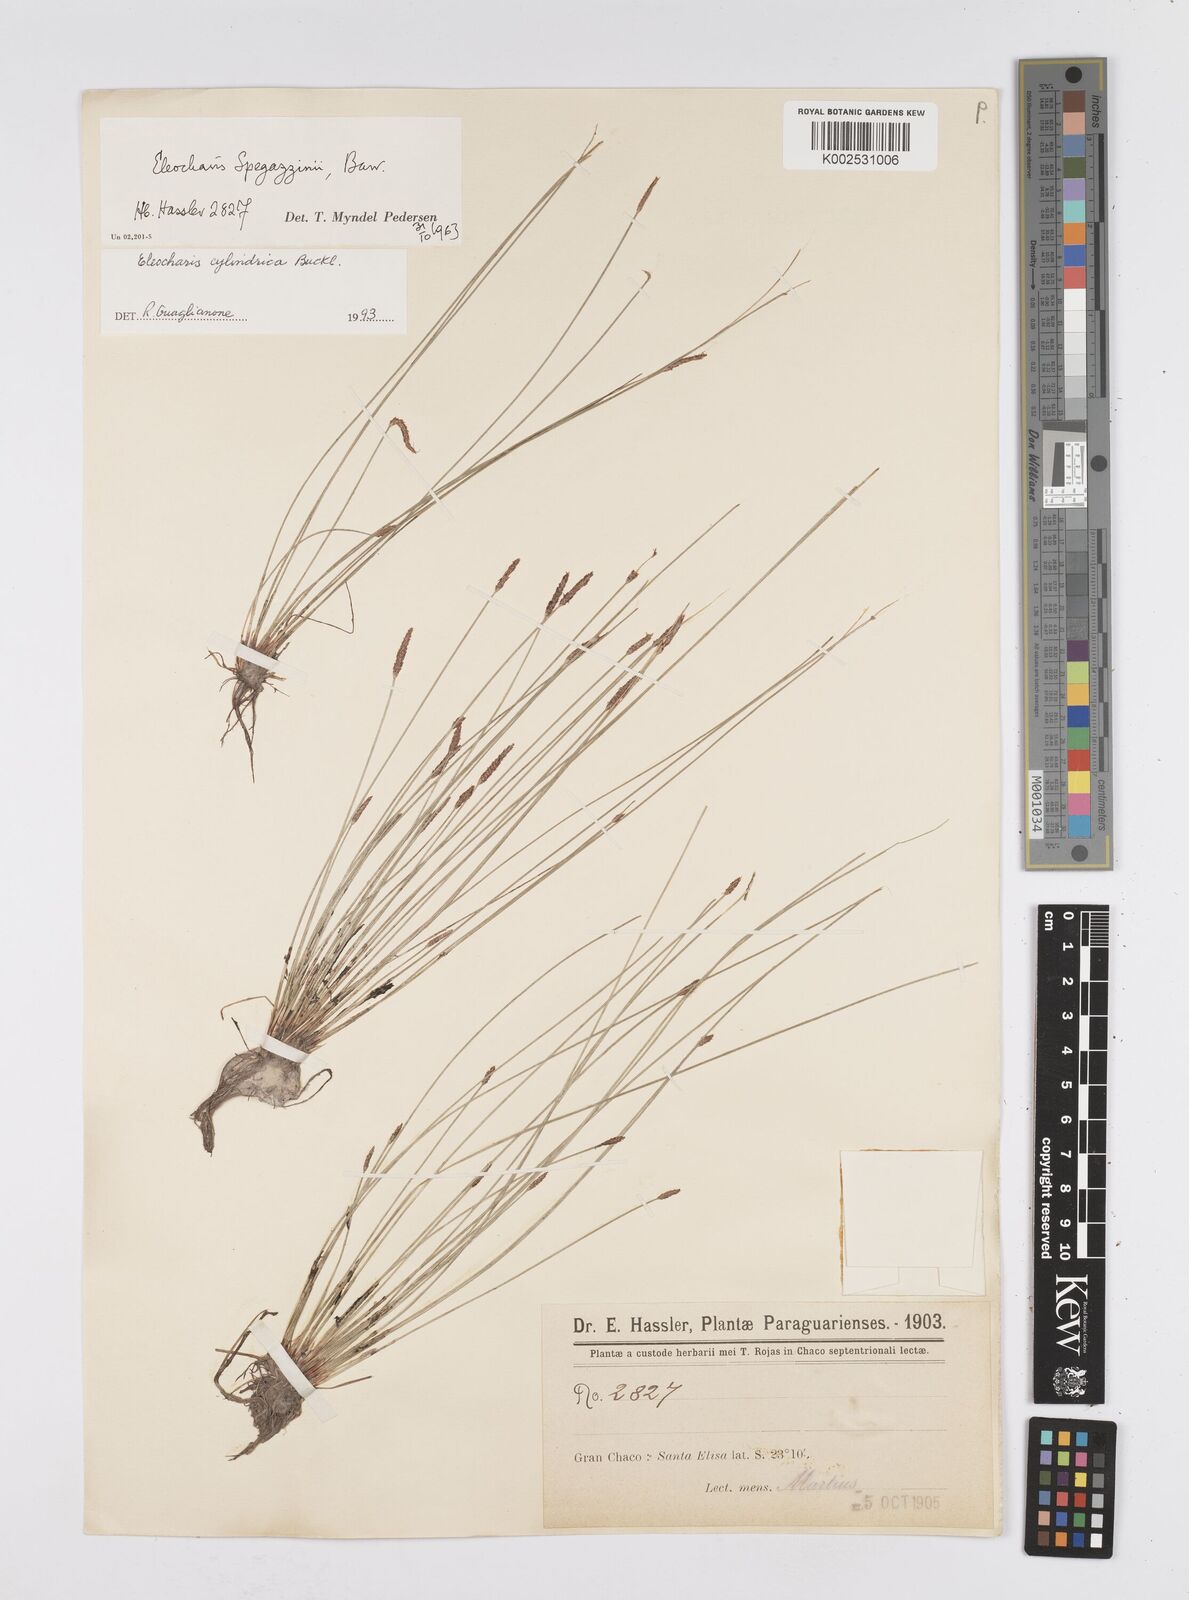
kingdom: Plantae
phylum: Tracheophyta
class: Liliopsida
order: Poales
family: Cyperaceae
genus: Eleocharis
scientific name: Eleocharis cylindrica
